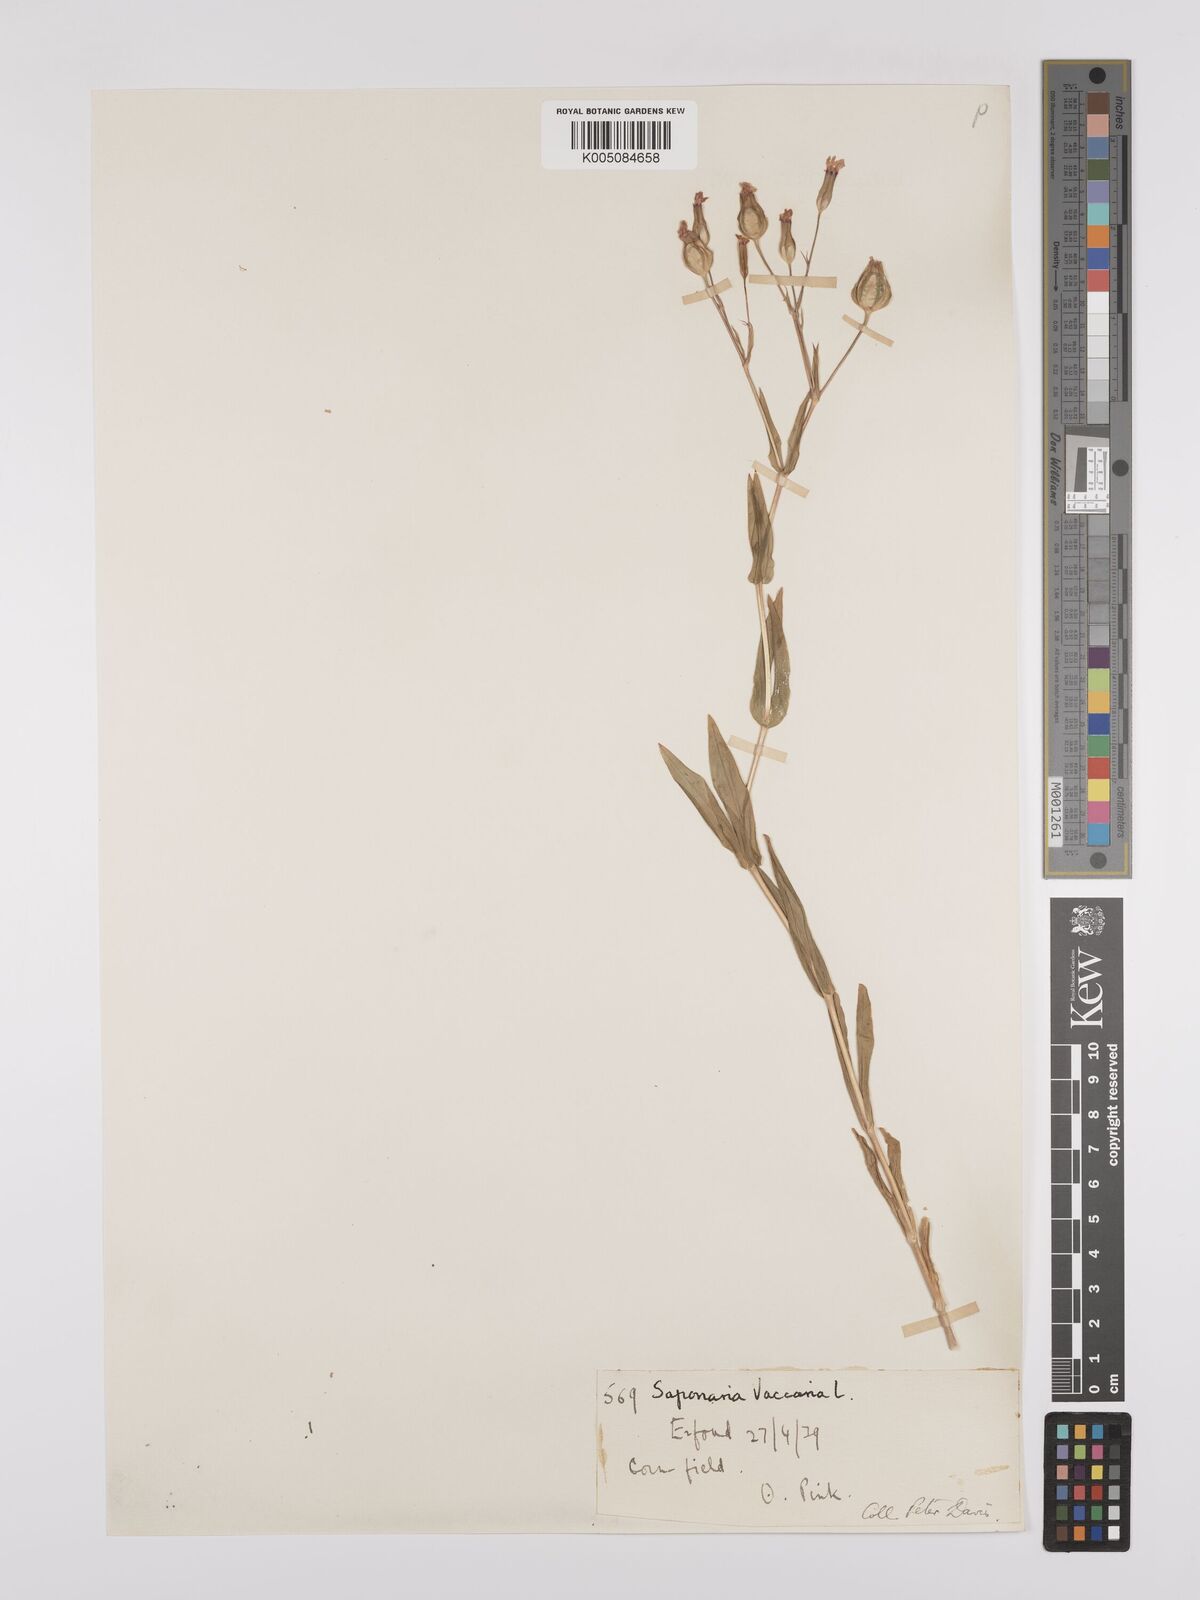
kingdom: Plantae
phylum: Tracheophyta
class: Magnoliopsida
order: Caryophyllales
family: Caryophyllaceae
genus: Gypsophila
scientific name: Gypsophila vaccaria
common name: Cow soapwort
